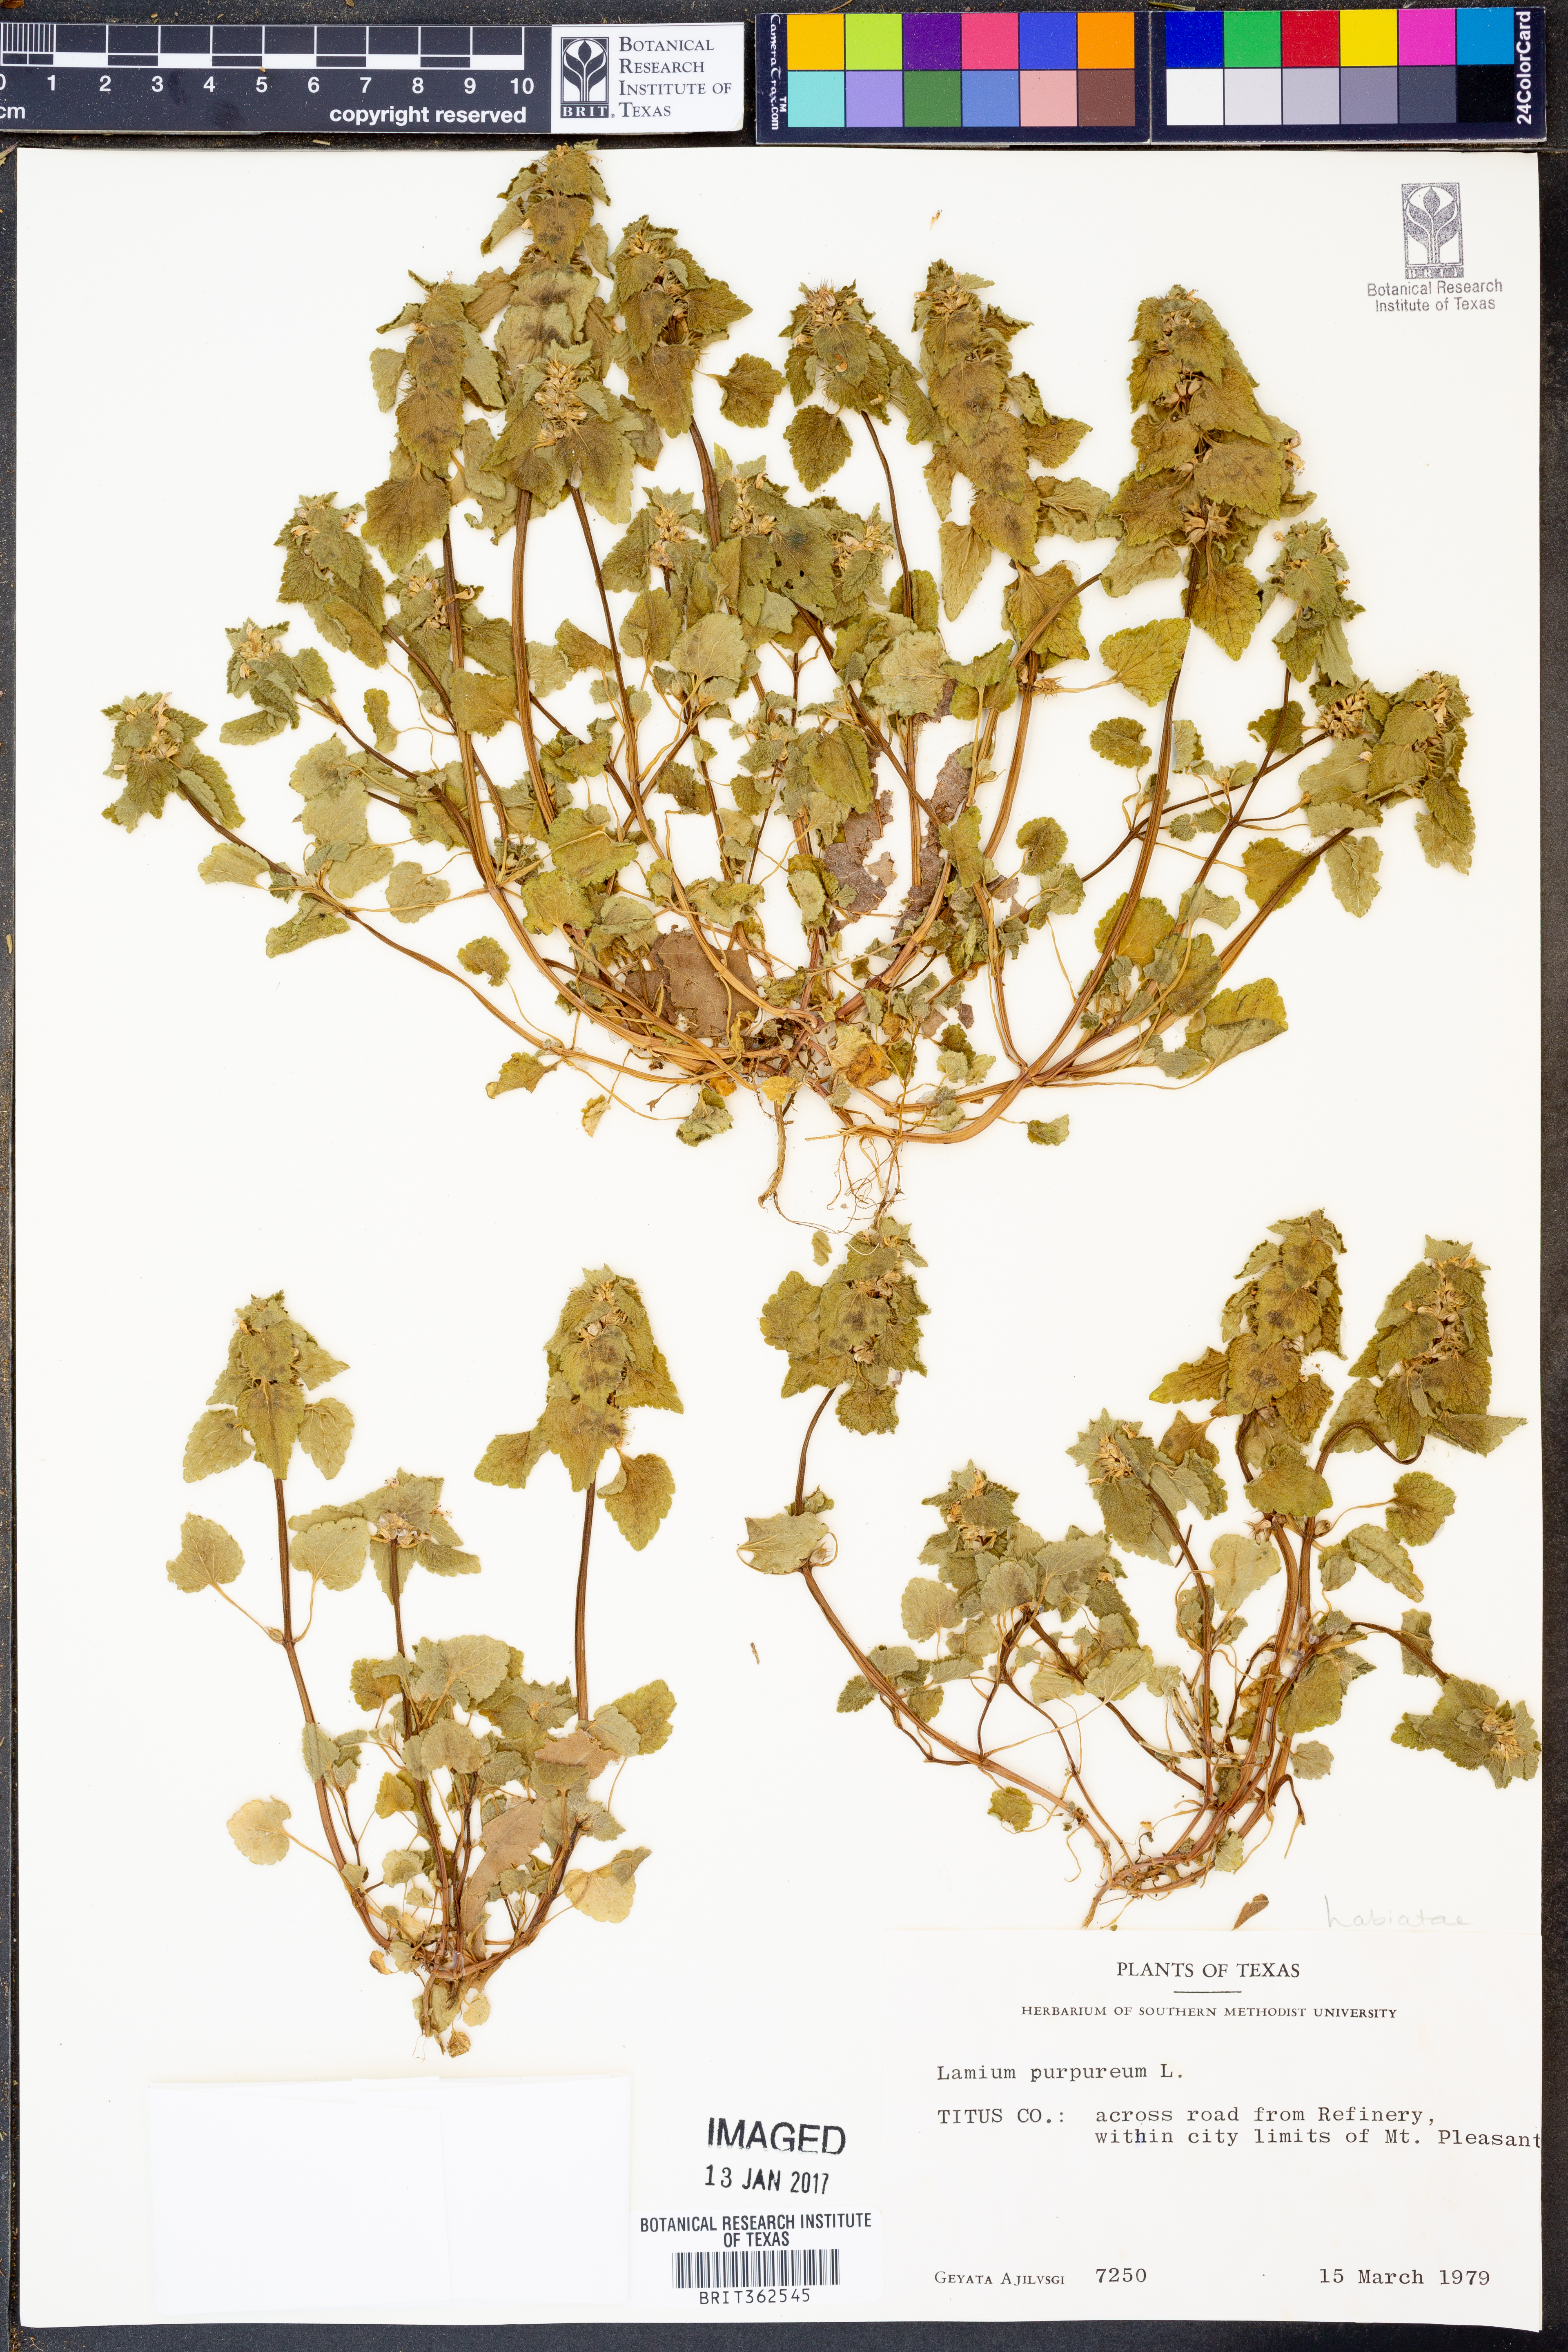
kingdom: Plantae
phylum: Tracheophyta
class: Magnoliopsida
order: Lamiales
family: Lamiaceae
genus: Lamium
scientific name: Lamium purpureum
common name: Red dead-nettle
